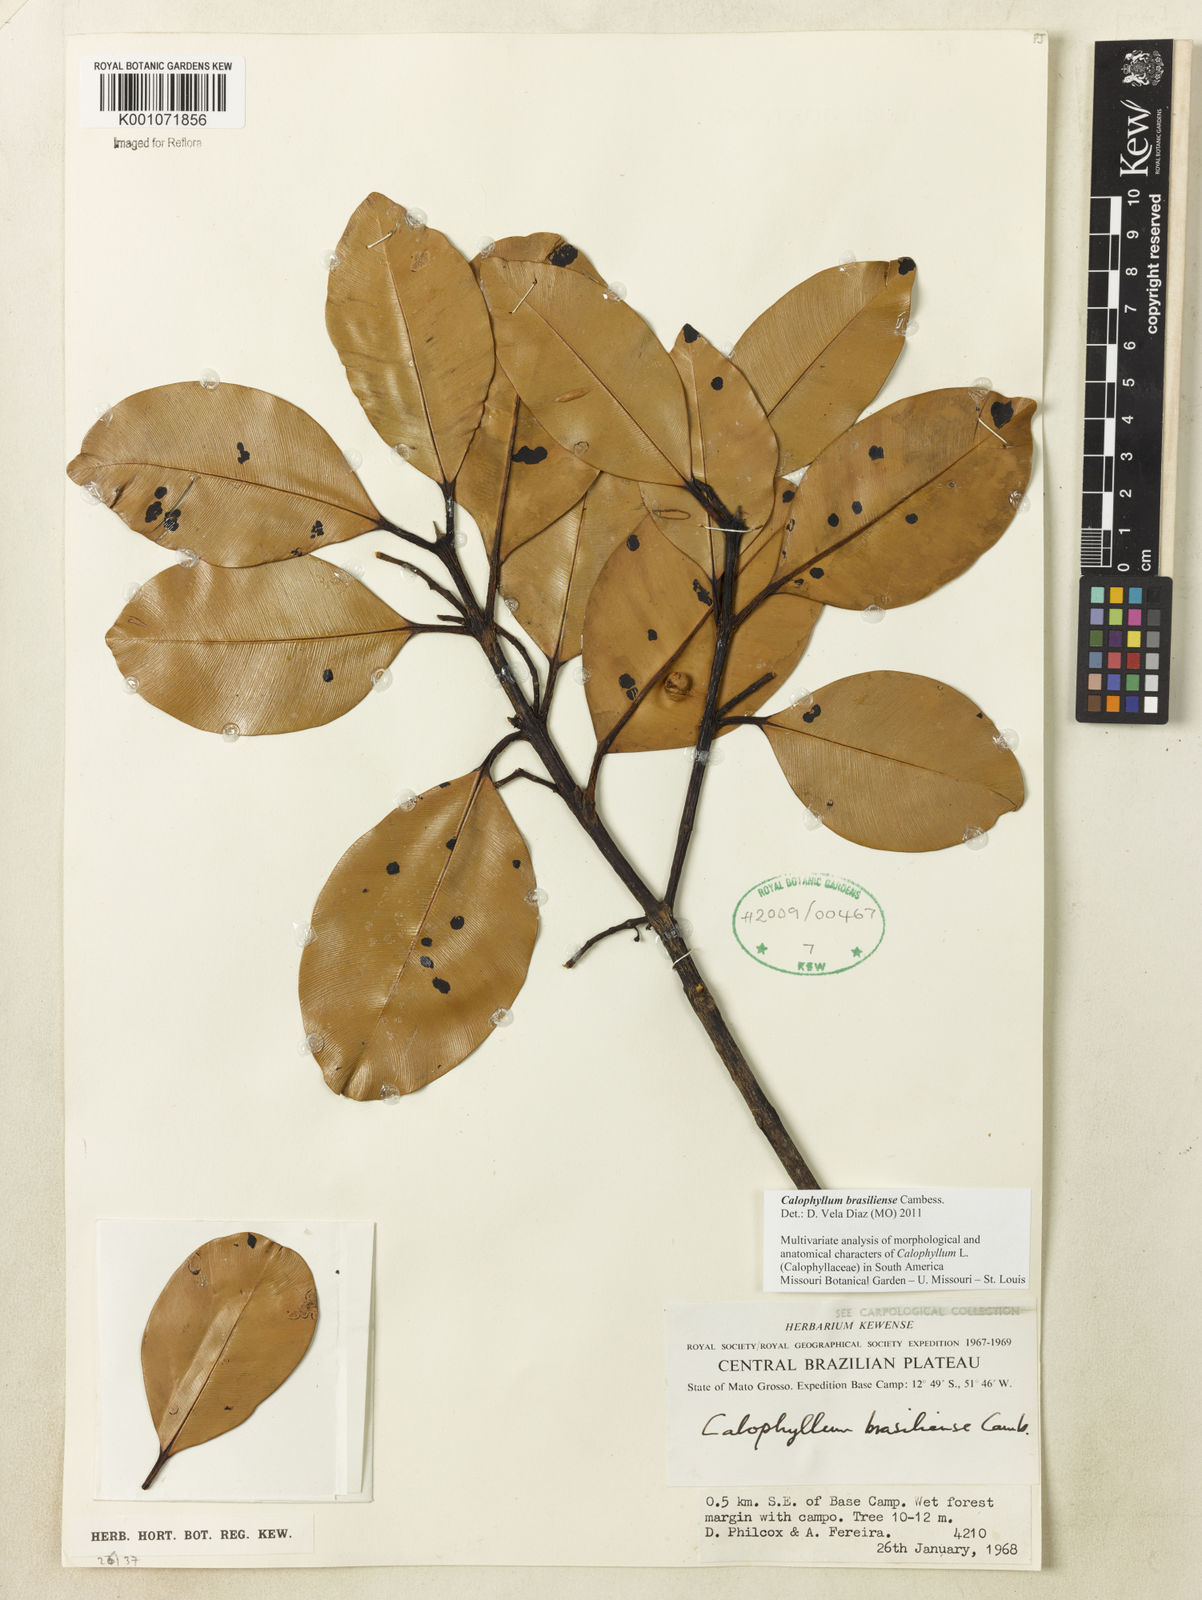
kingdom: Plantae
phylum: Tracheophyta
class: Magnoliopsida
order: Malpighiales
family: Calophyllaceae
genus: Calophyllum
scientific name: Calophyllum brasiliense
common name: Santa maria
